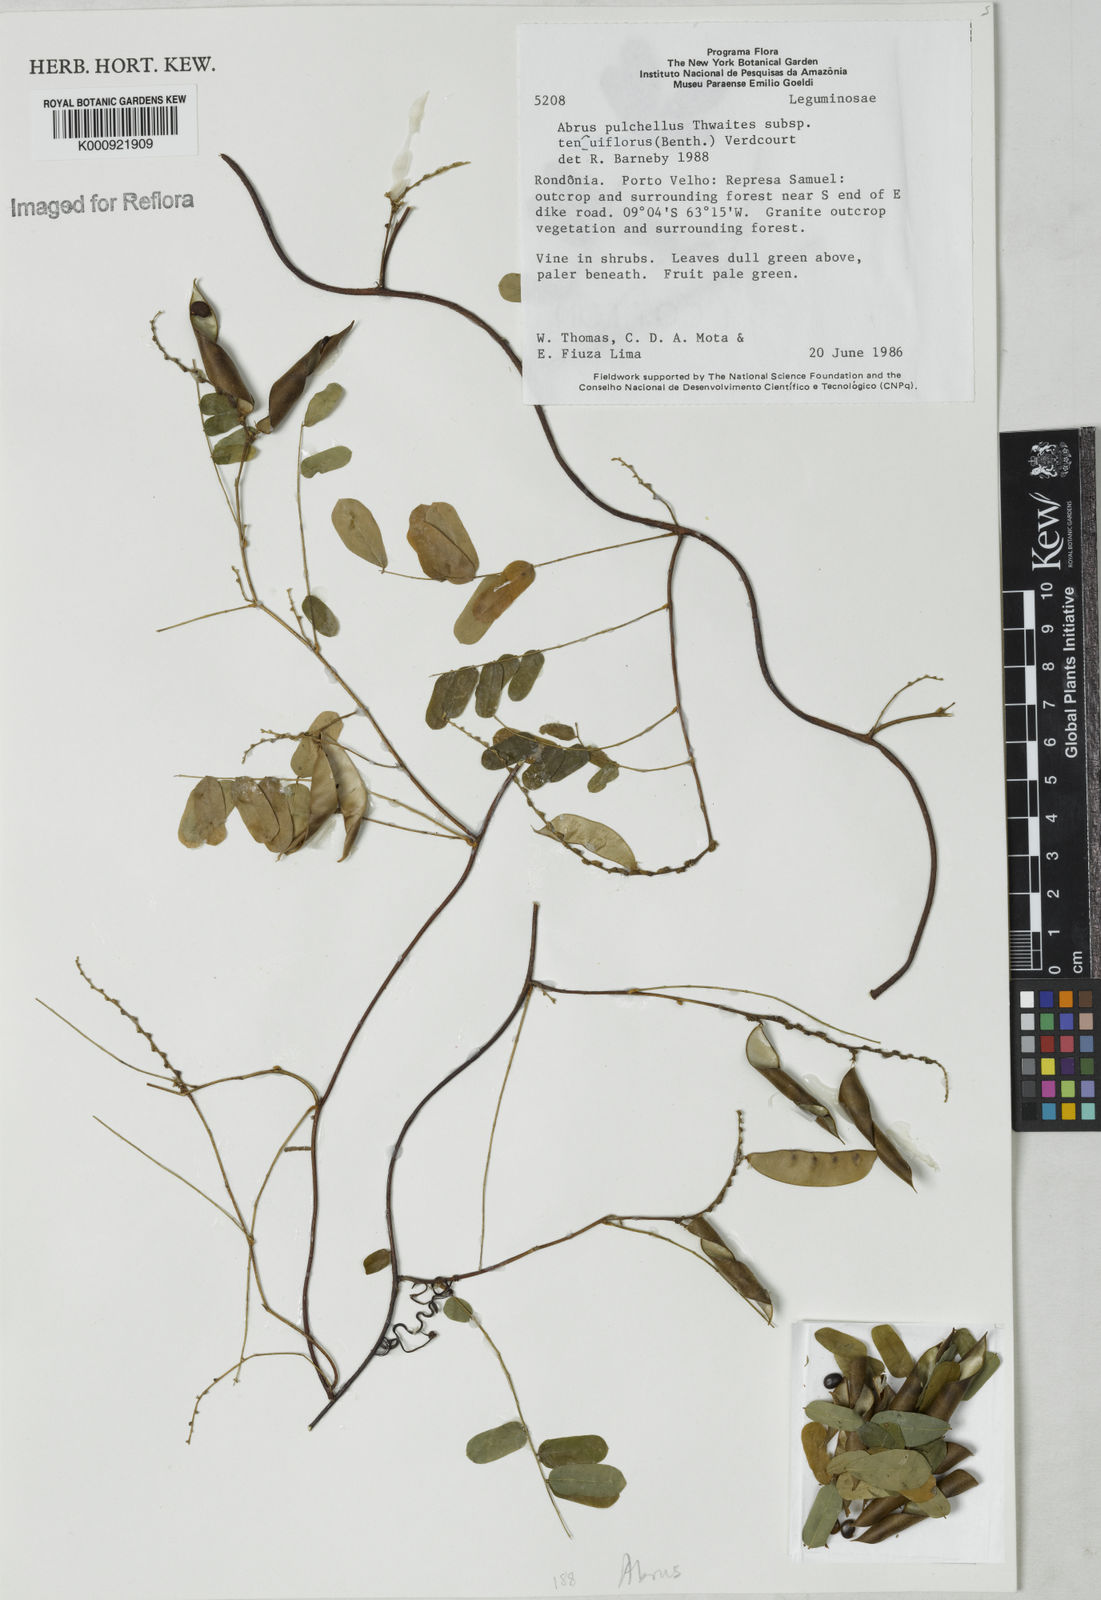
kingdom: Plantae
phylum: Tracheophyta
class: Magnoliopsida
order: Fabales
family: Fabaceae
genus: Abrus
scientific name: Abrus melanospermus
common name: Licorice-root
